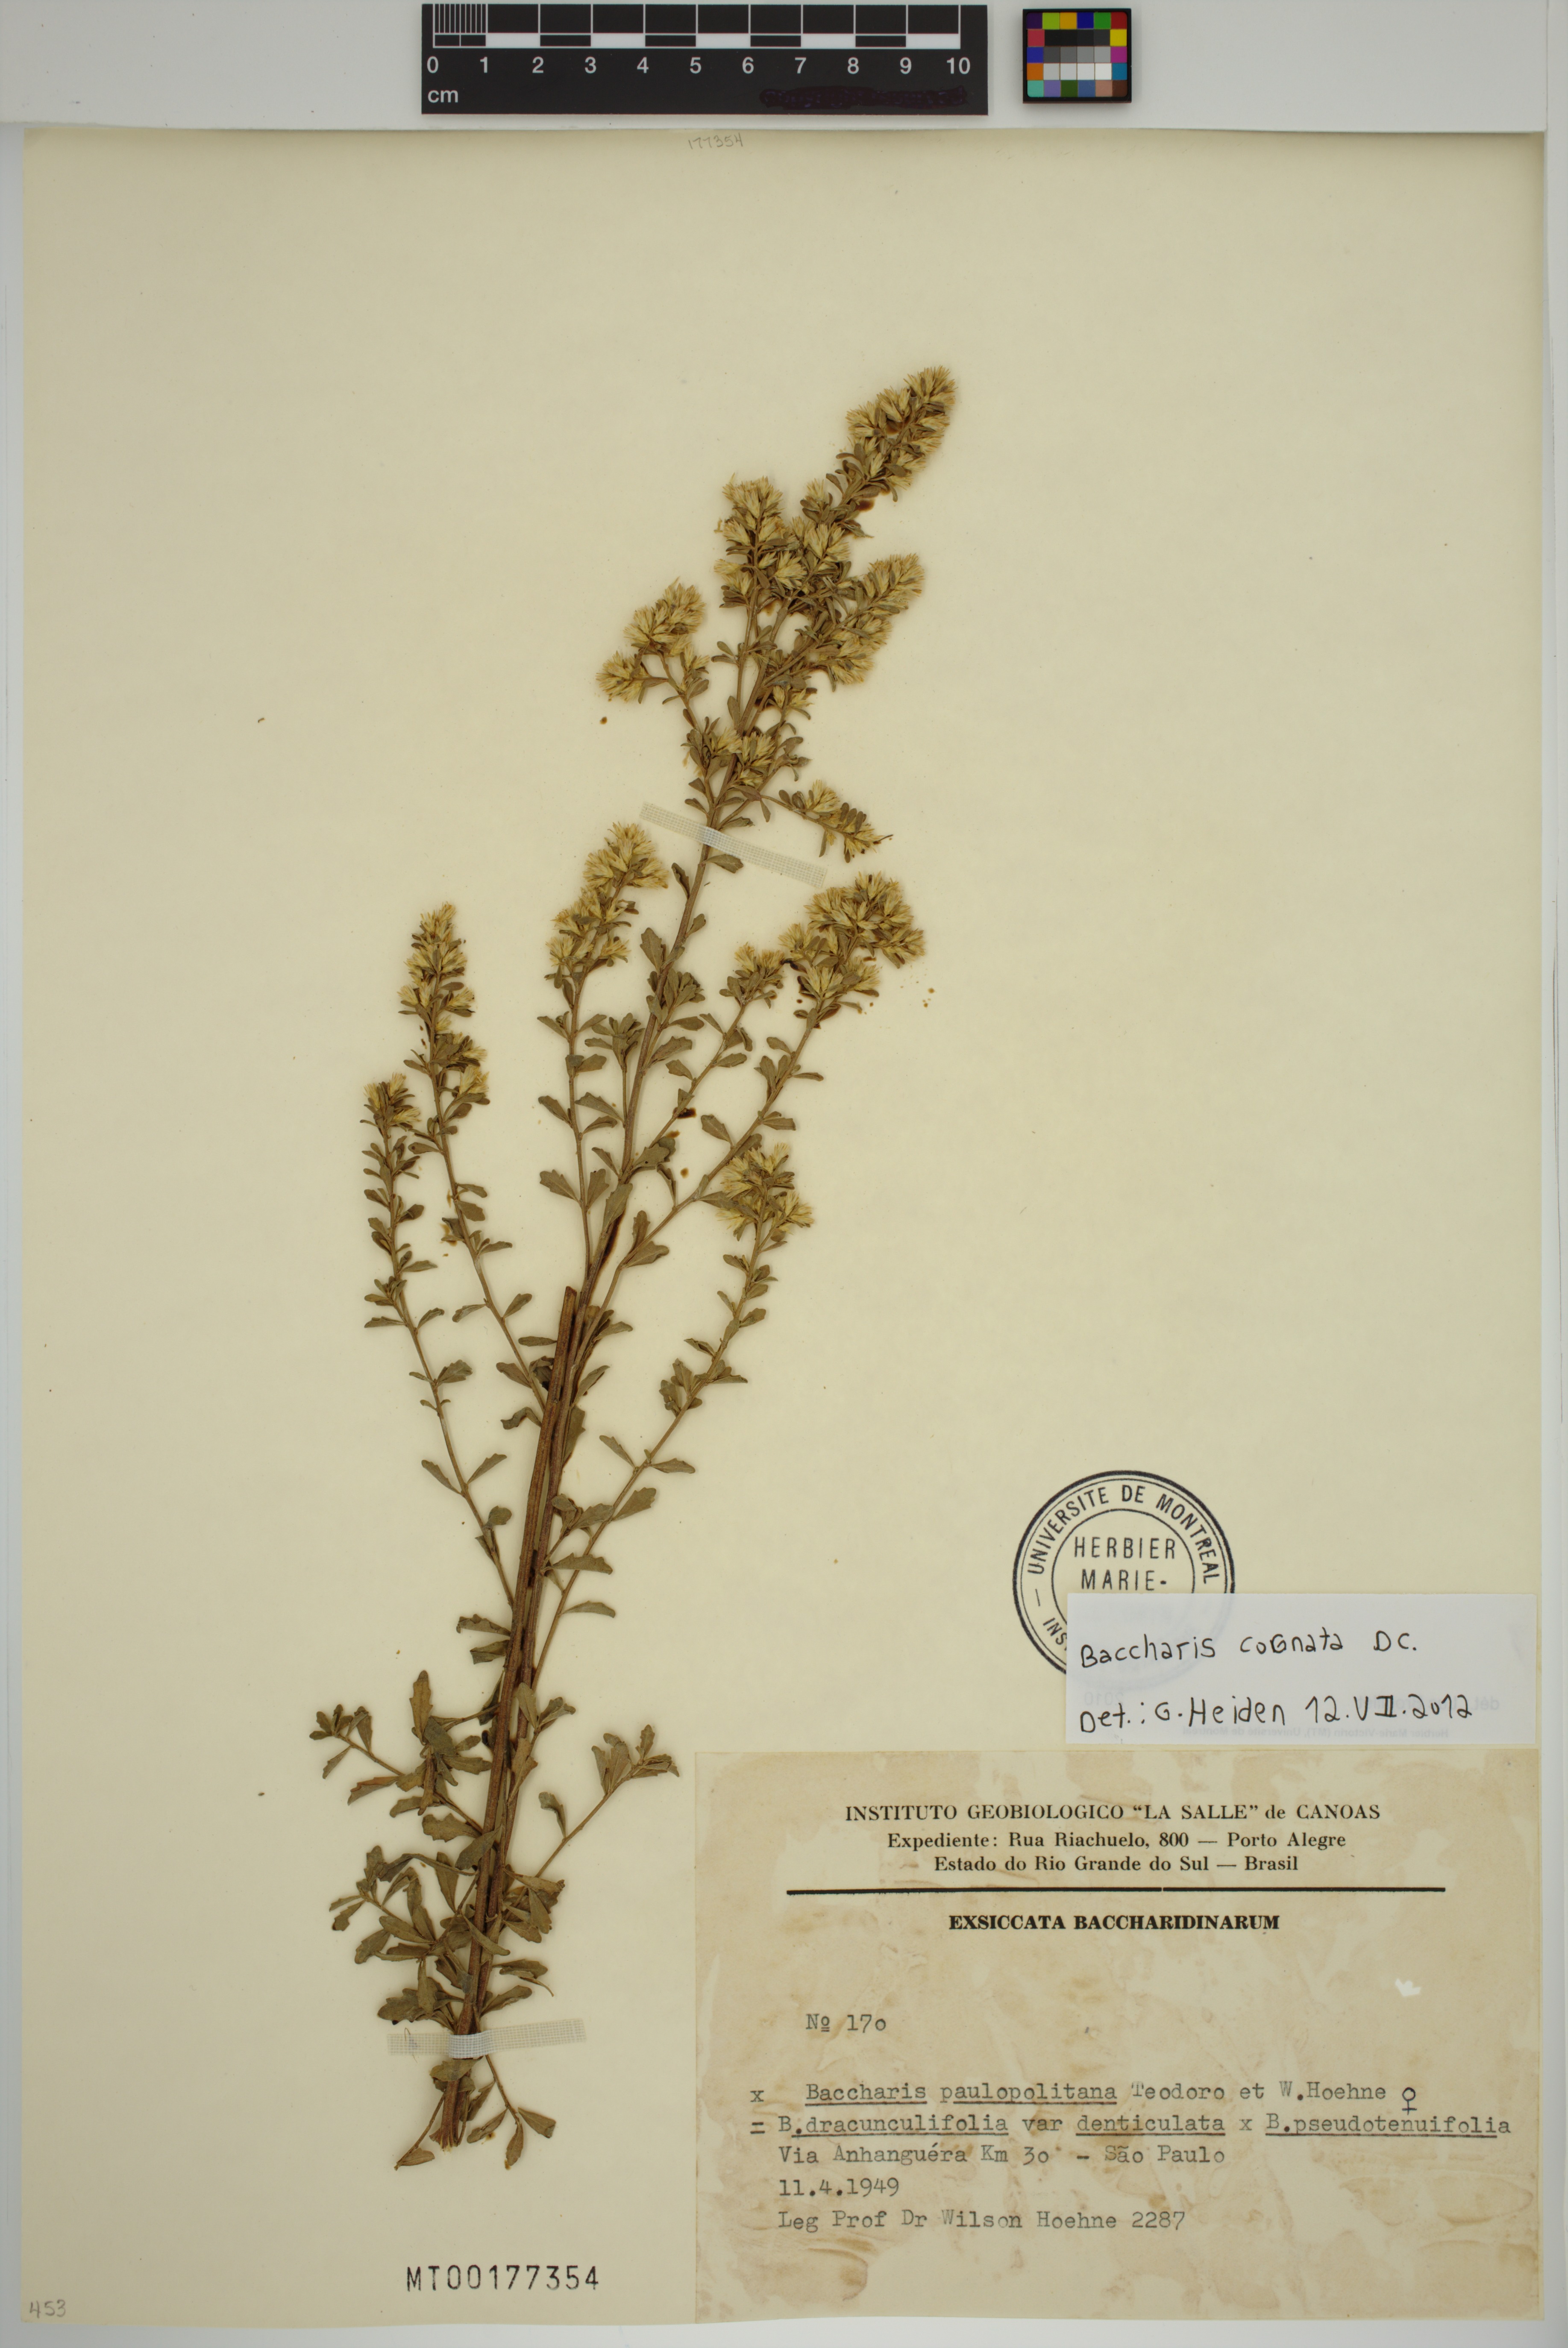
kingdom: Plantae
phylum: Tracheophyta
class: Magnoliopsida
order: Asterales
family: Asteraceae
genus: Baccharis
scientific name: Baccharis cognata
